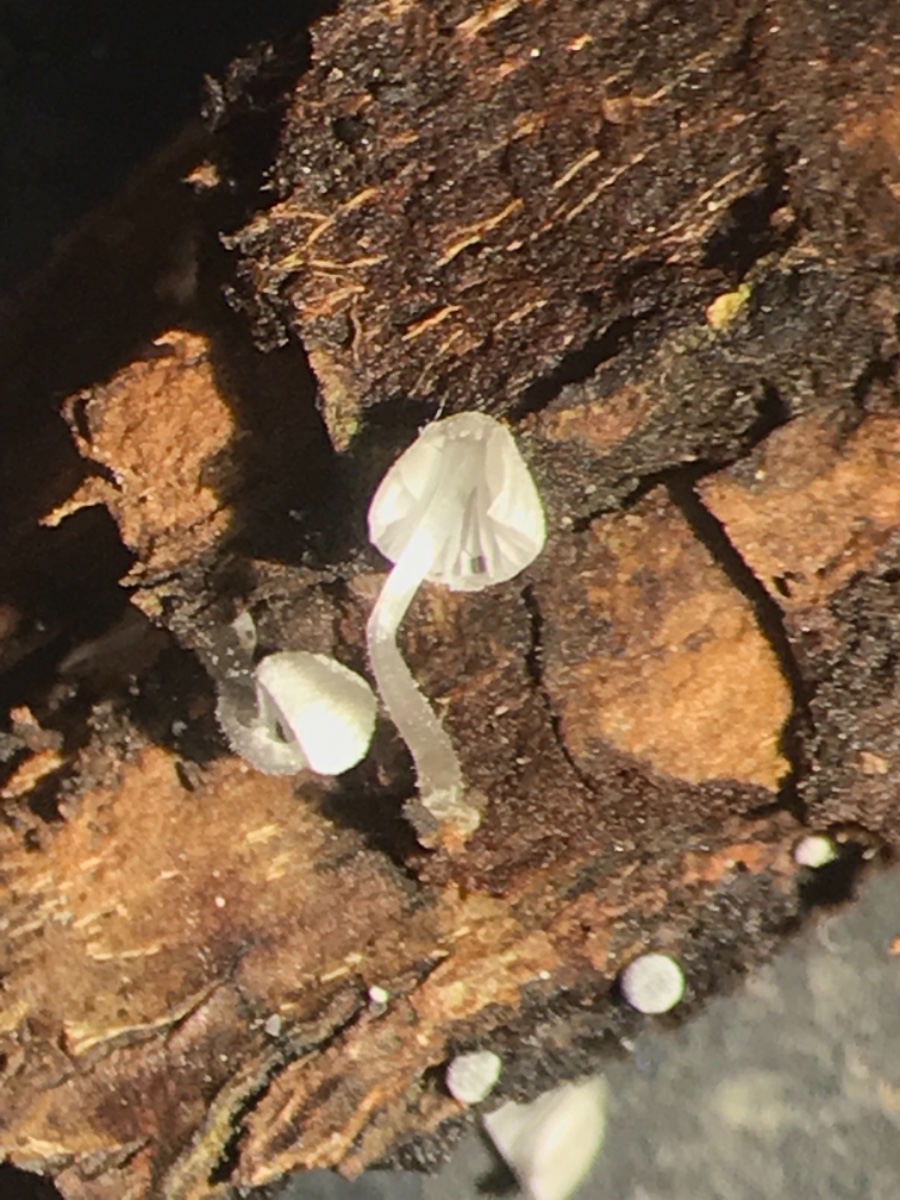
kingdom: Fungi
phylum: Basidiomycota
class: Agaricomycetes
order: Agaricales
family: Mycenaceae
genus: Mycena
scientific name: Mycena tenerrima
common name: pudret huesvamp
